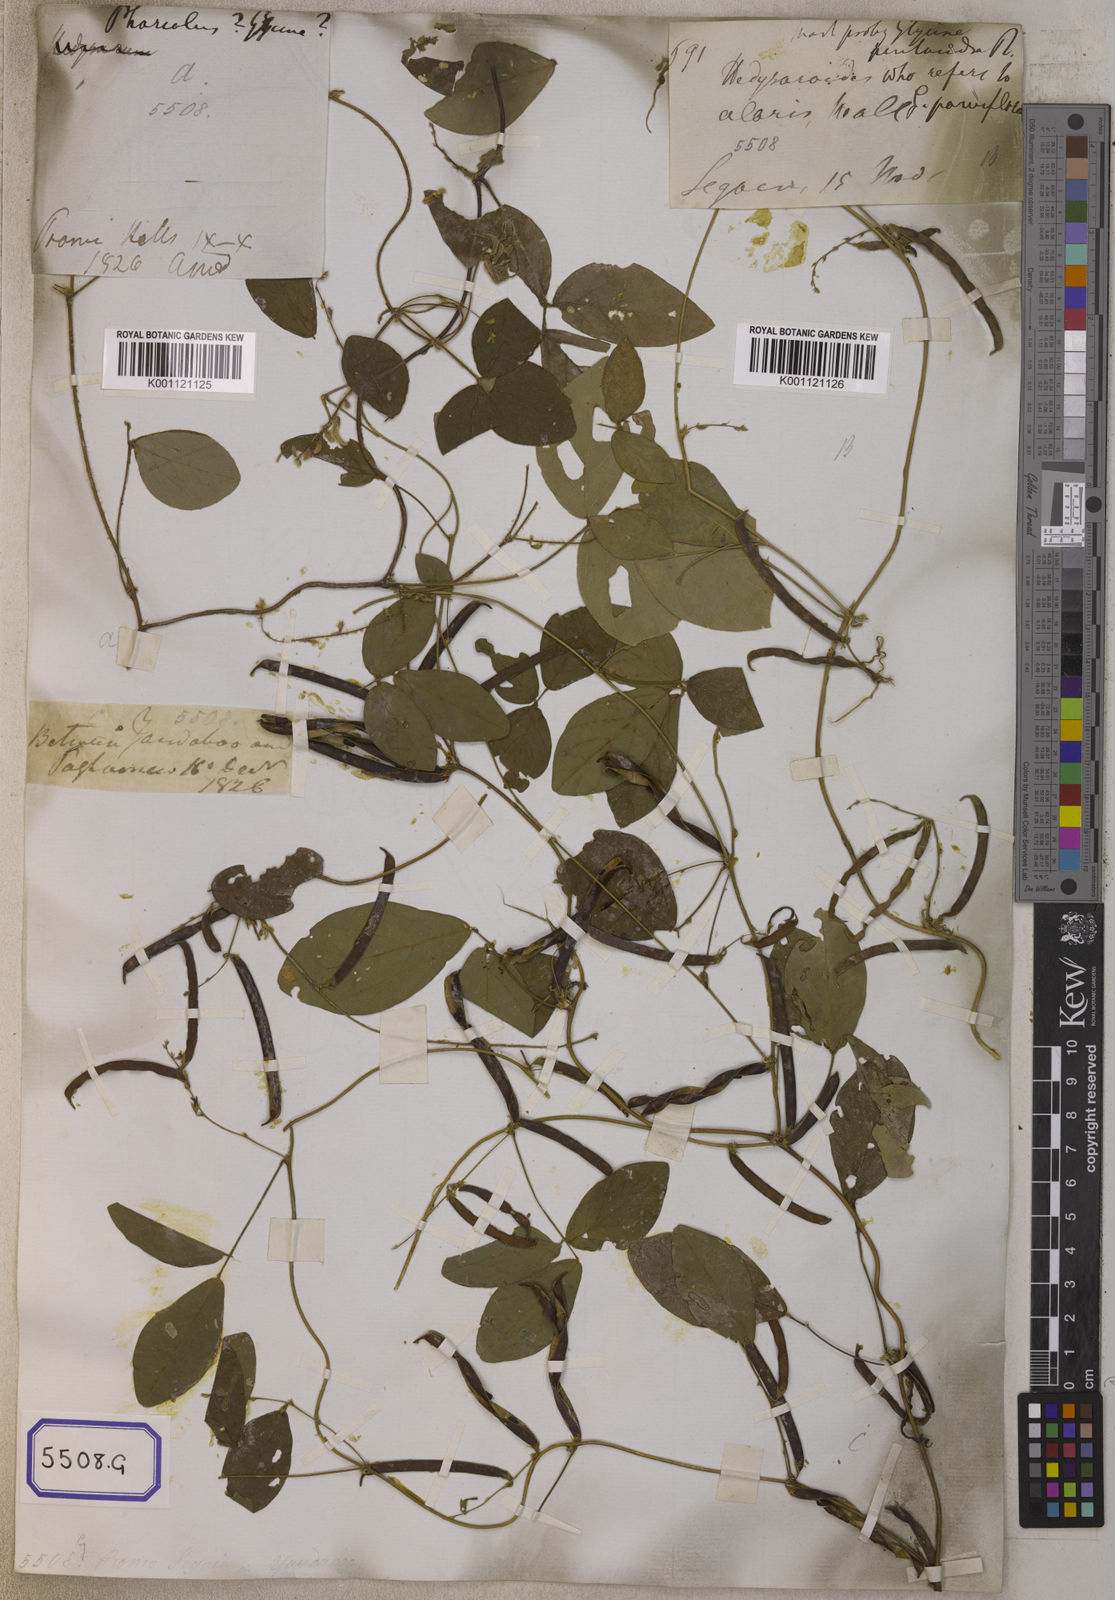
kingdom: Plantae
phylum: Tracheophyta
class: Magnoliopsida
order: Fabales
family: Fabaceae
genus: Teramnus
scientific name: Teramnus labialis
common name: Blue wiss
